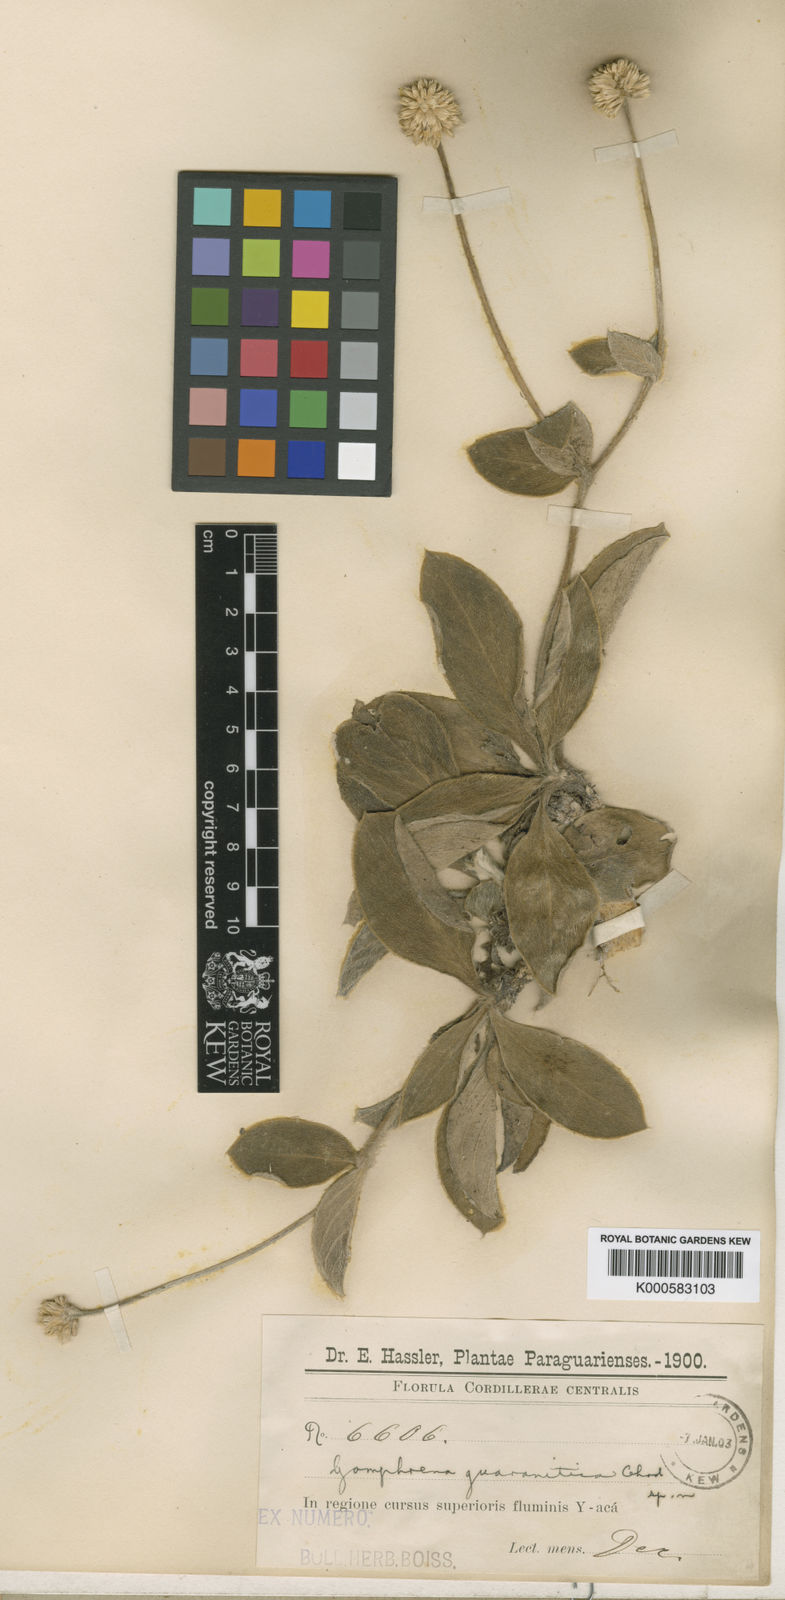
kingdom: Plantae
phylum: Tracheophyta
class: Magnoliopsida
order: Caryophyllales
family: Amaranthaceae
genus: Gomphrena
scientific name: Gomphrena guaranitica
